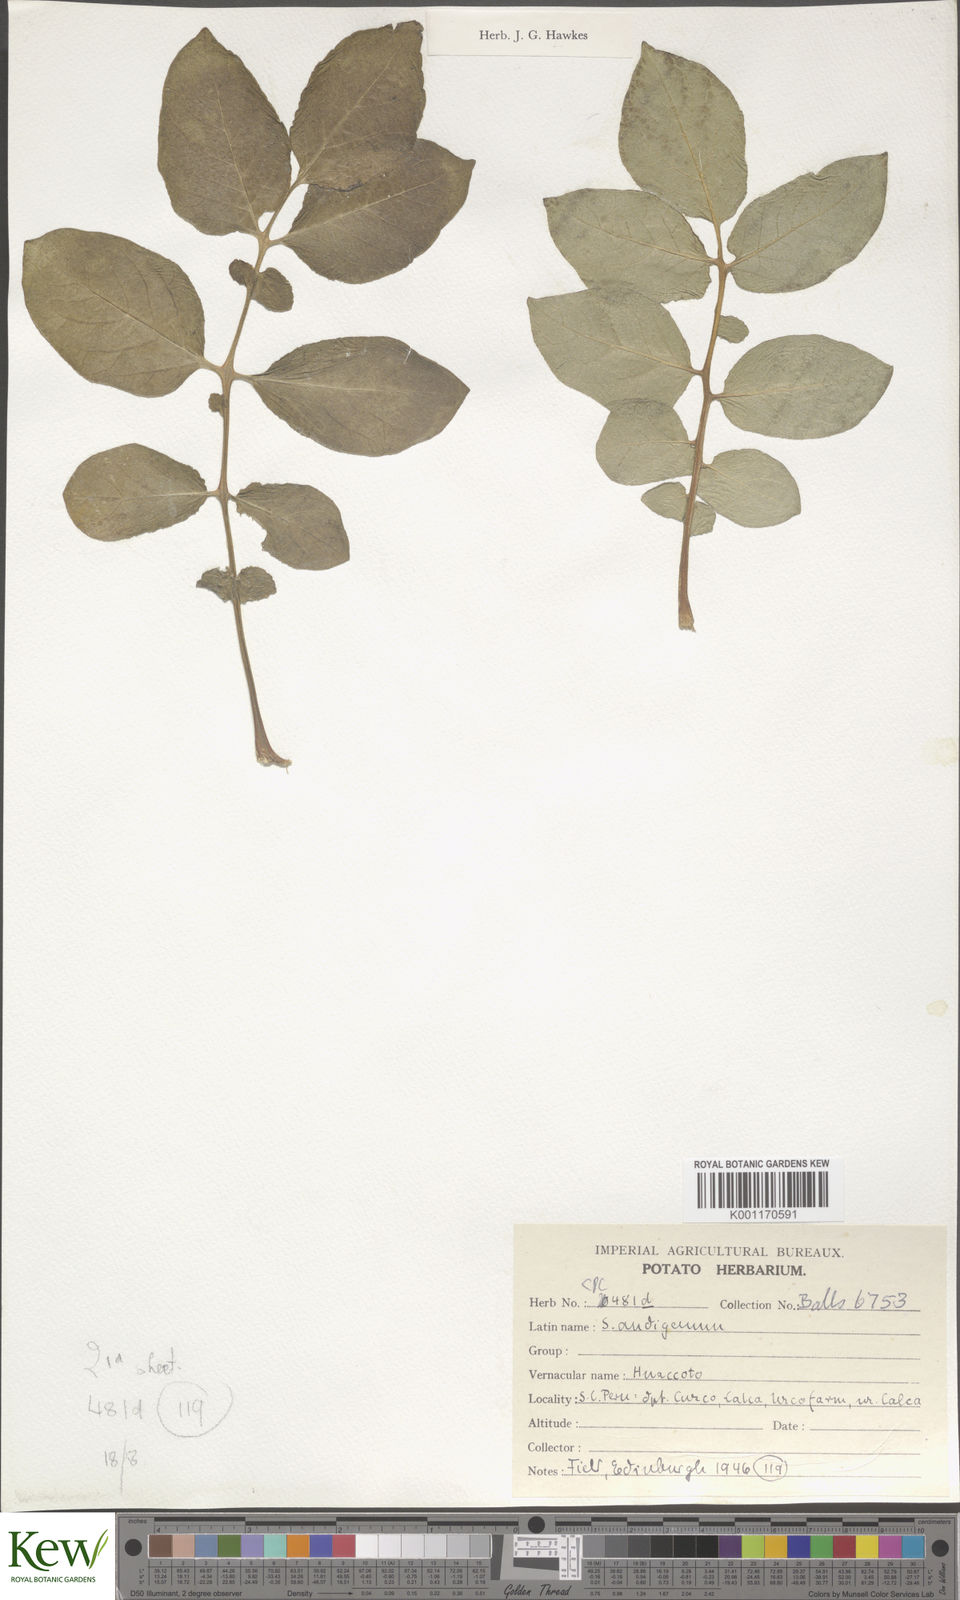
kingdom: Plantae
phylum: Tracheophyta
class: Magnoliopsida
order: Solanales
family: Solanaceae
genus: Solanum
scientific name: Solanum tuberosum
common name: Potato
